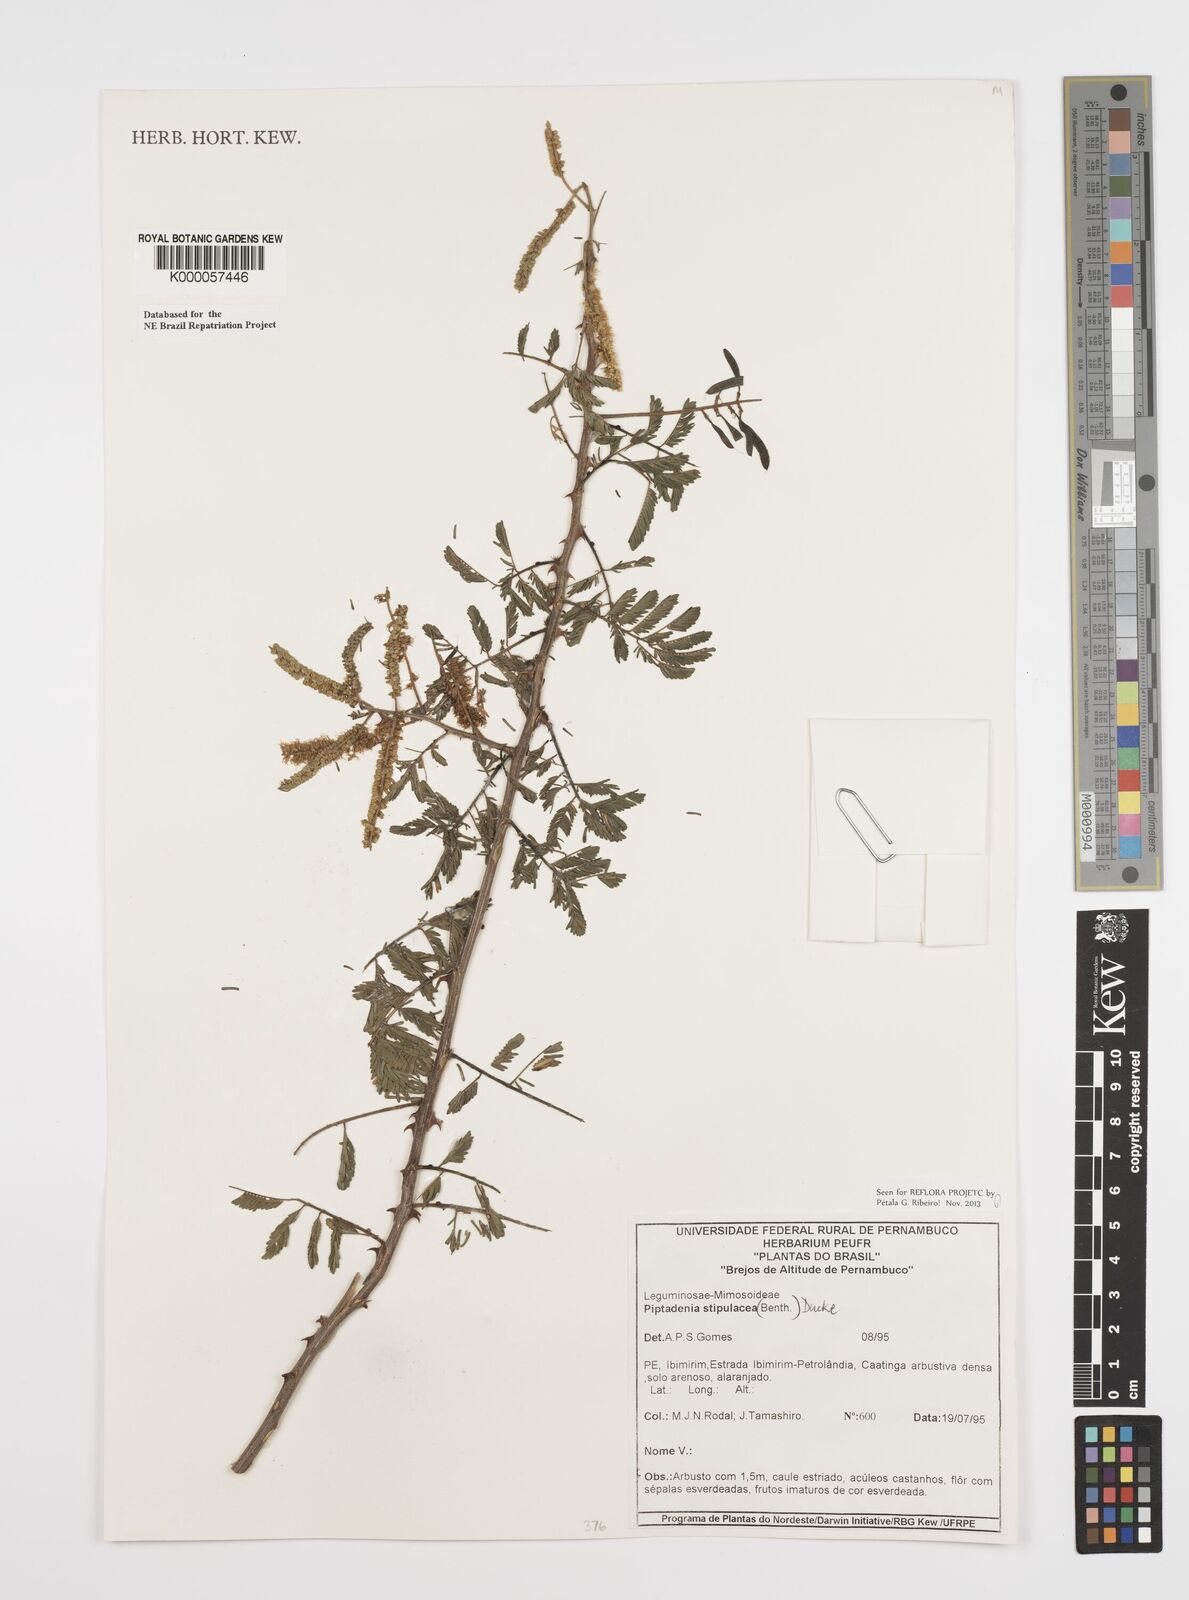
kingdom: Plantae
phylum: Tracheophyta
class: Magnoliopsida
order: Fabales
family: Fabaceae
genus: Piptadenia
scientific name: Piptadenia retusa
